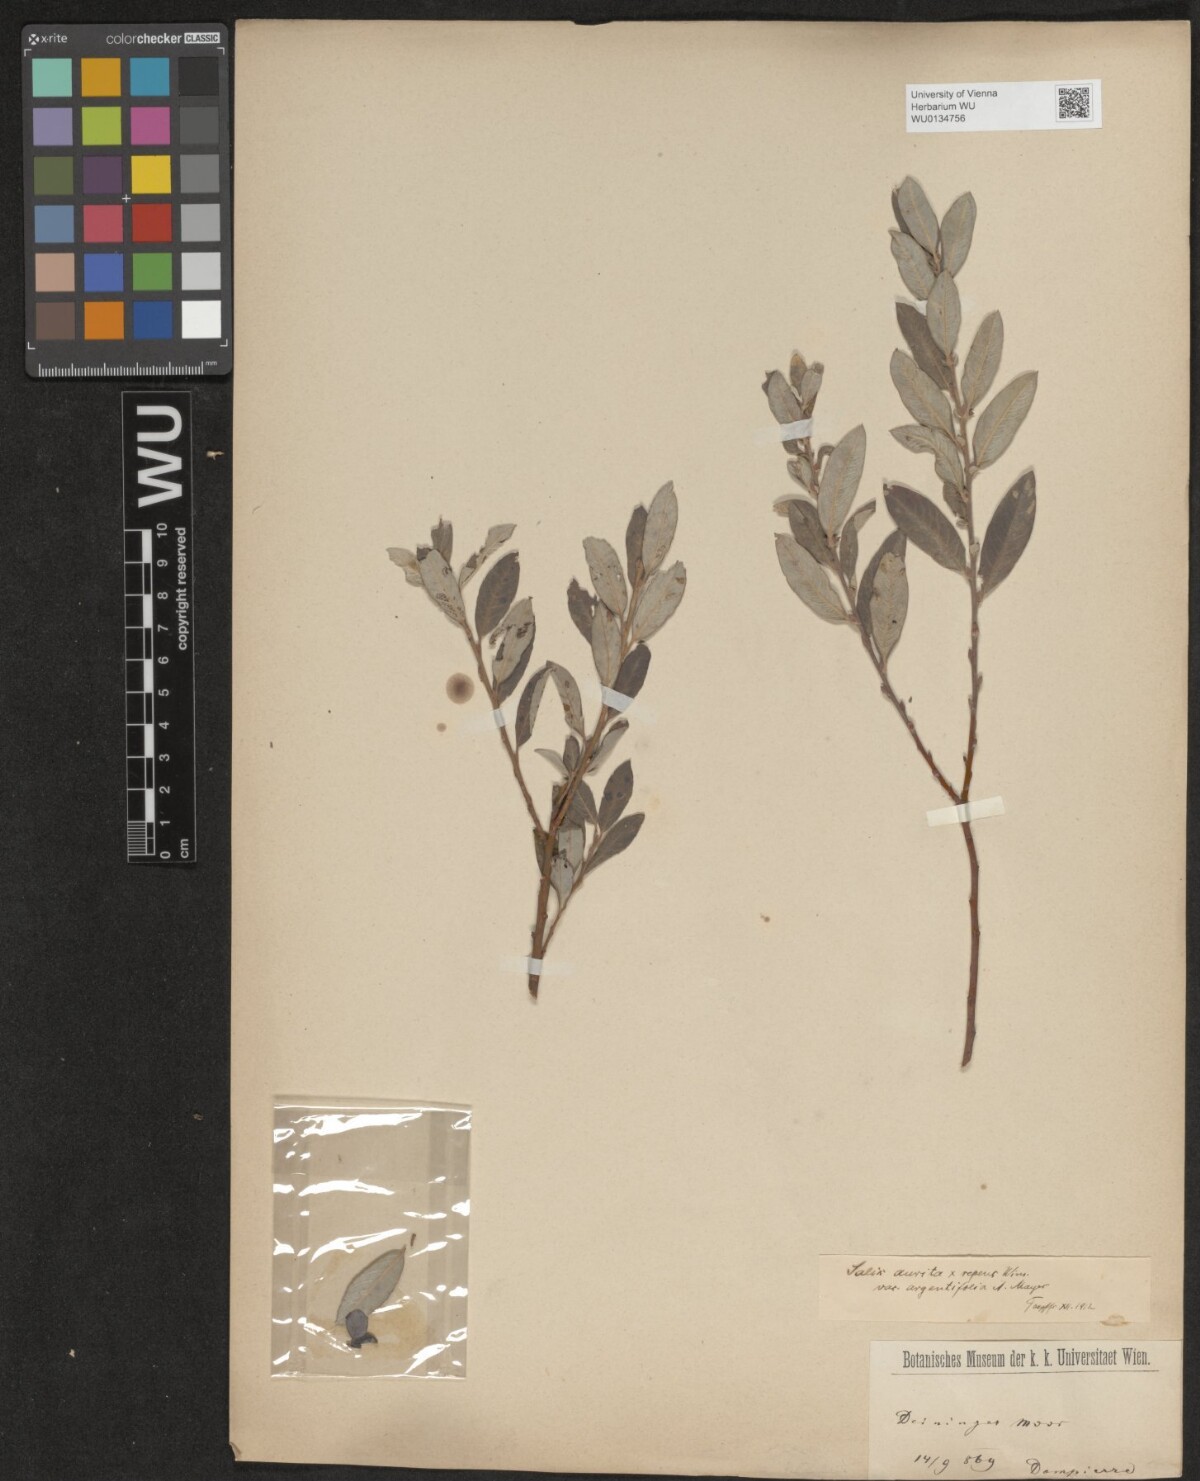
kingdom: Plantae
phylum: Tracheophyta
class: Magnoliopsida
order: Malpighiales
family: Salicaceae
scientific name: Salicaceae
